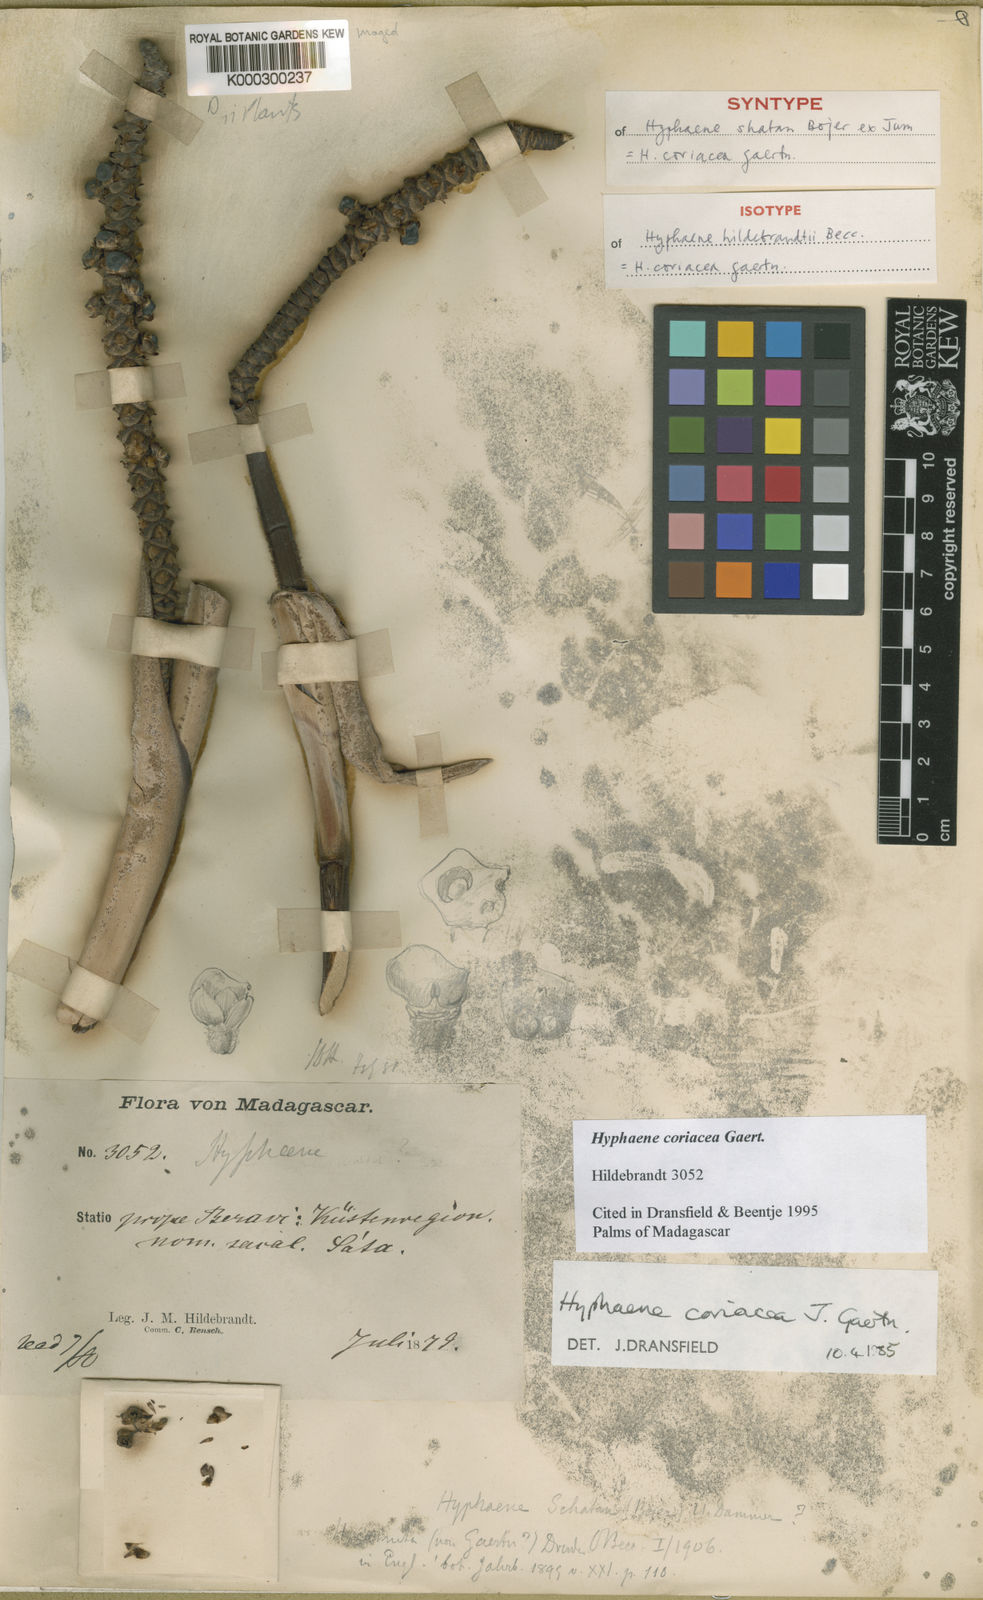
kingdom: Plantae
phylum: Tracheophyta
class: Liliopsida
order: Arecales
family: Arecaceae
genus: Hyphaene
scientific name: Hyphaene coriacea
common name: Ilala palm
